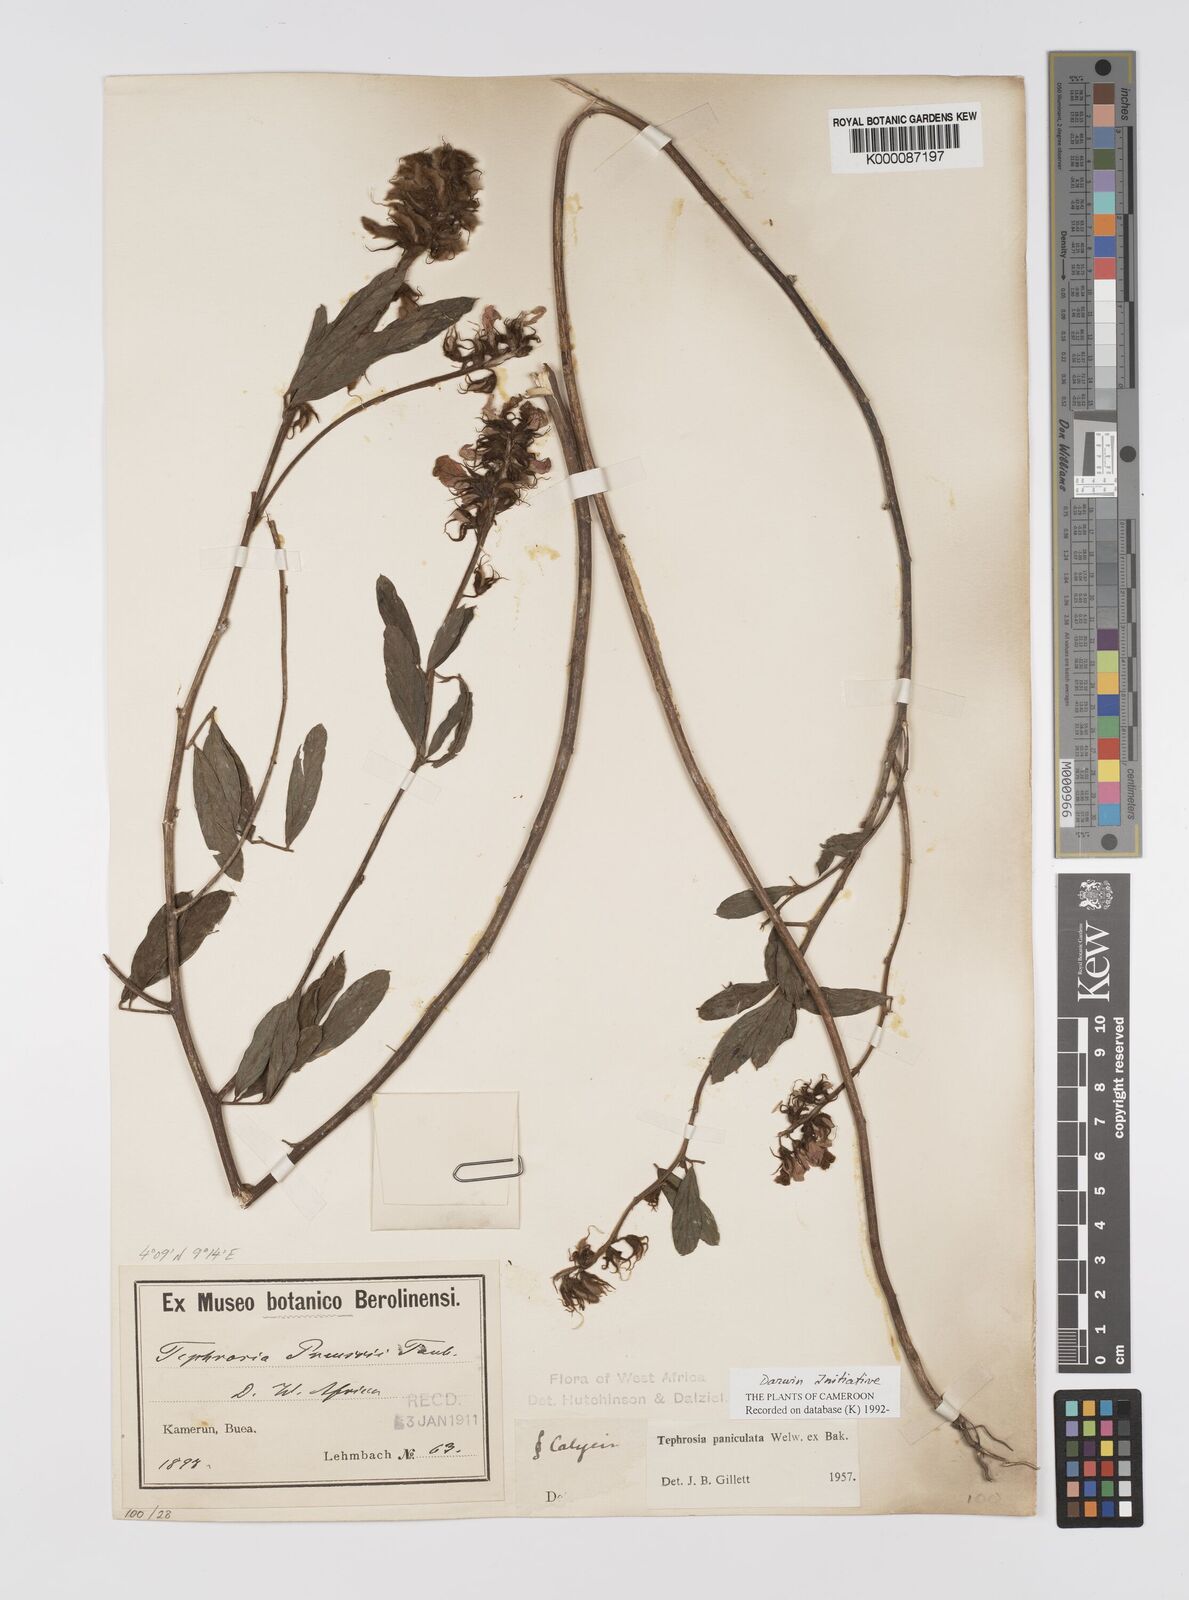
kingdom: Plantae
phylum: Tracheophyta
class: Magnoliopsida
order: Fabales
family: Fabaceae
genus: Tephrosia
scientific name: Tephrosia paniculata
